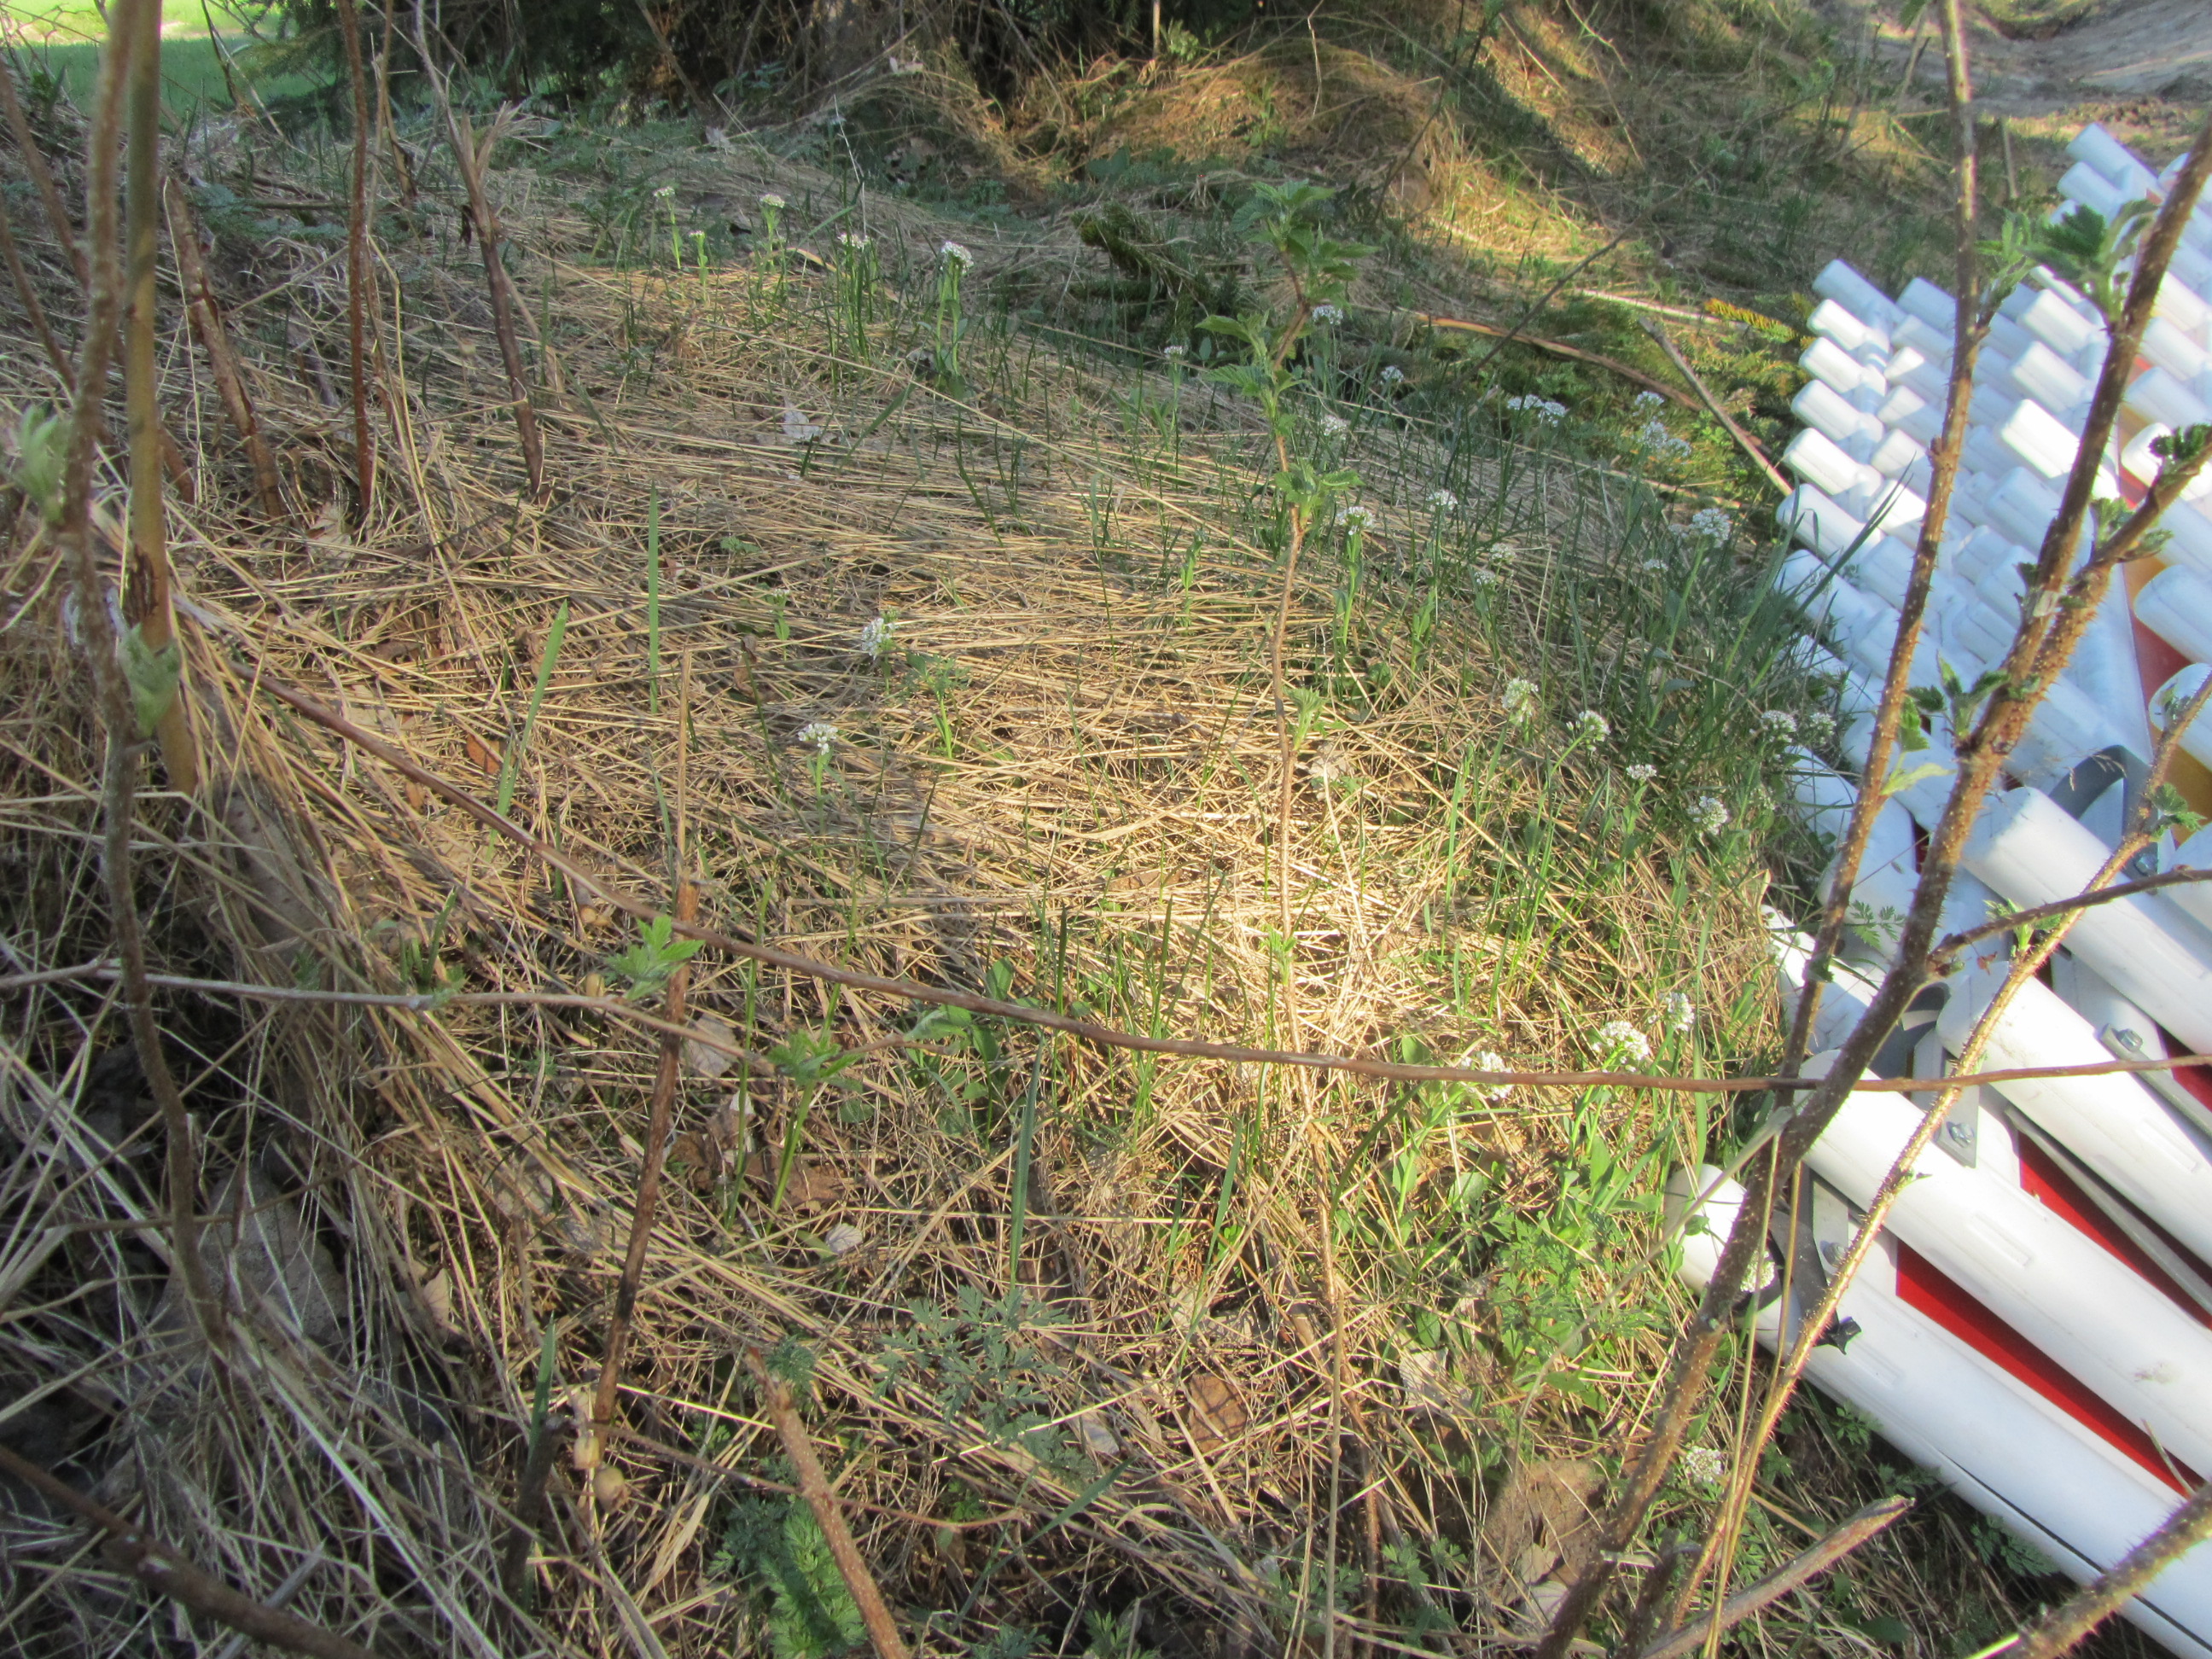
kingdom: Plantae
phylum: Tracheophyta
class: Magnoliopsida
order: Brassicales
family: Brassicaceae
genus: Noccaea
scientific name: Noccaea
